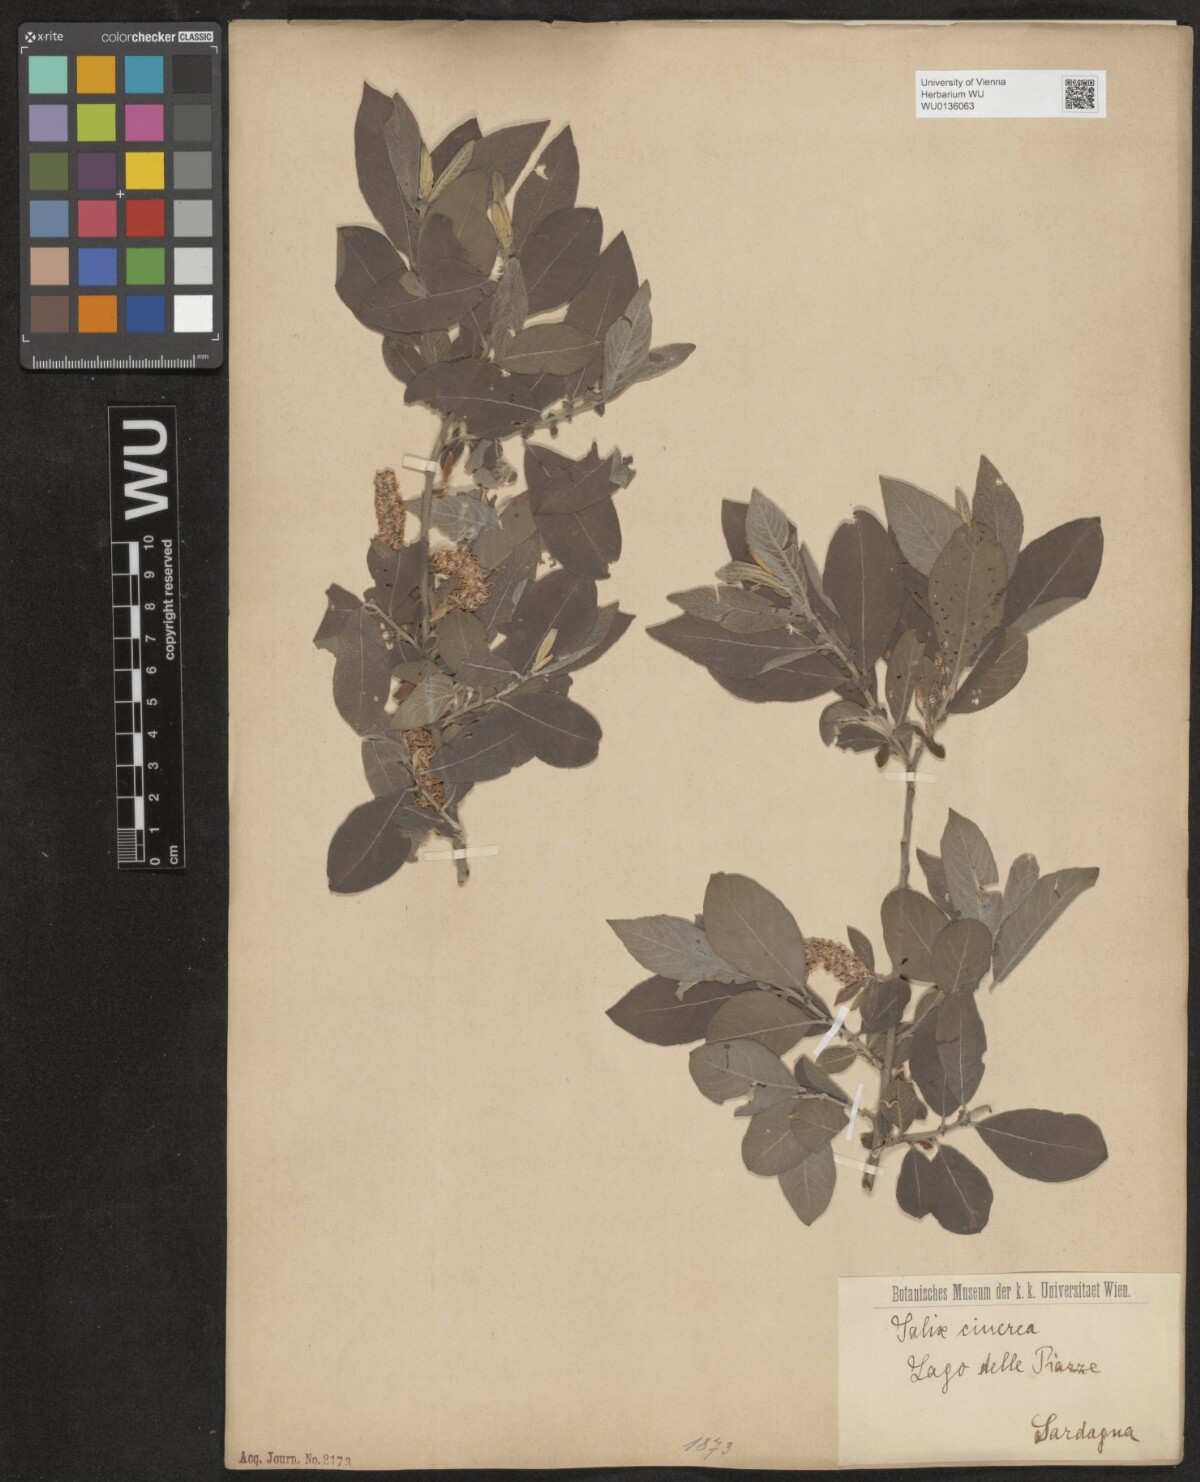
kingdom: Plantae
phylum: Tracheophyta
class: Magnoliopsida
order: Malpighiales
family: Salicaceae
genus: Salix
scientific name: Salix cinerea
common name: Common sallow
